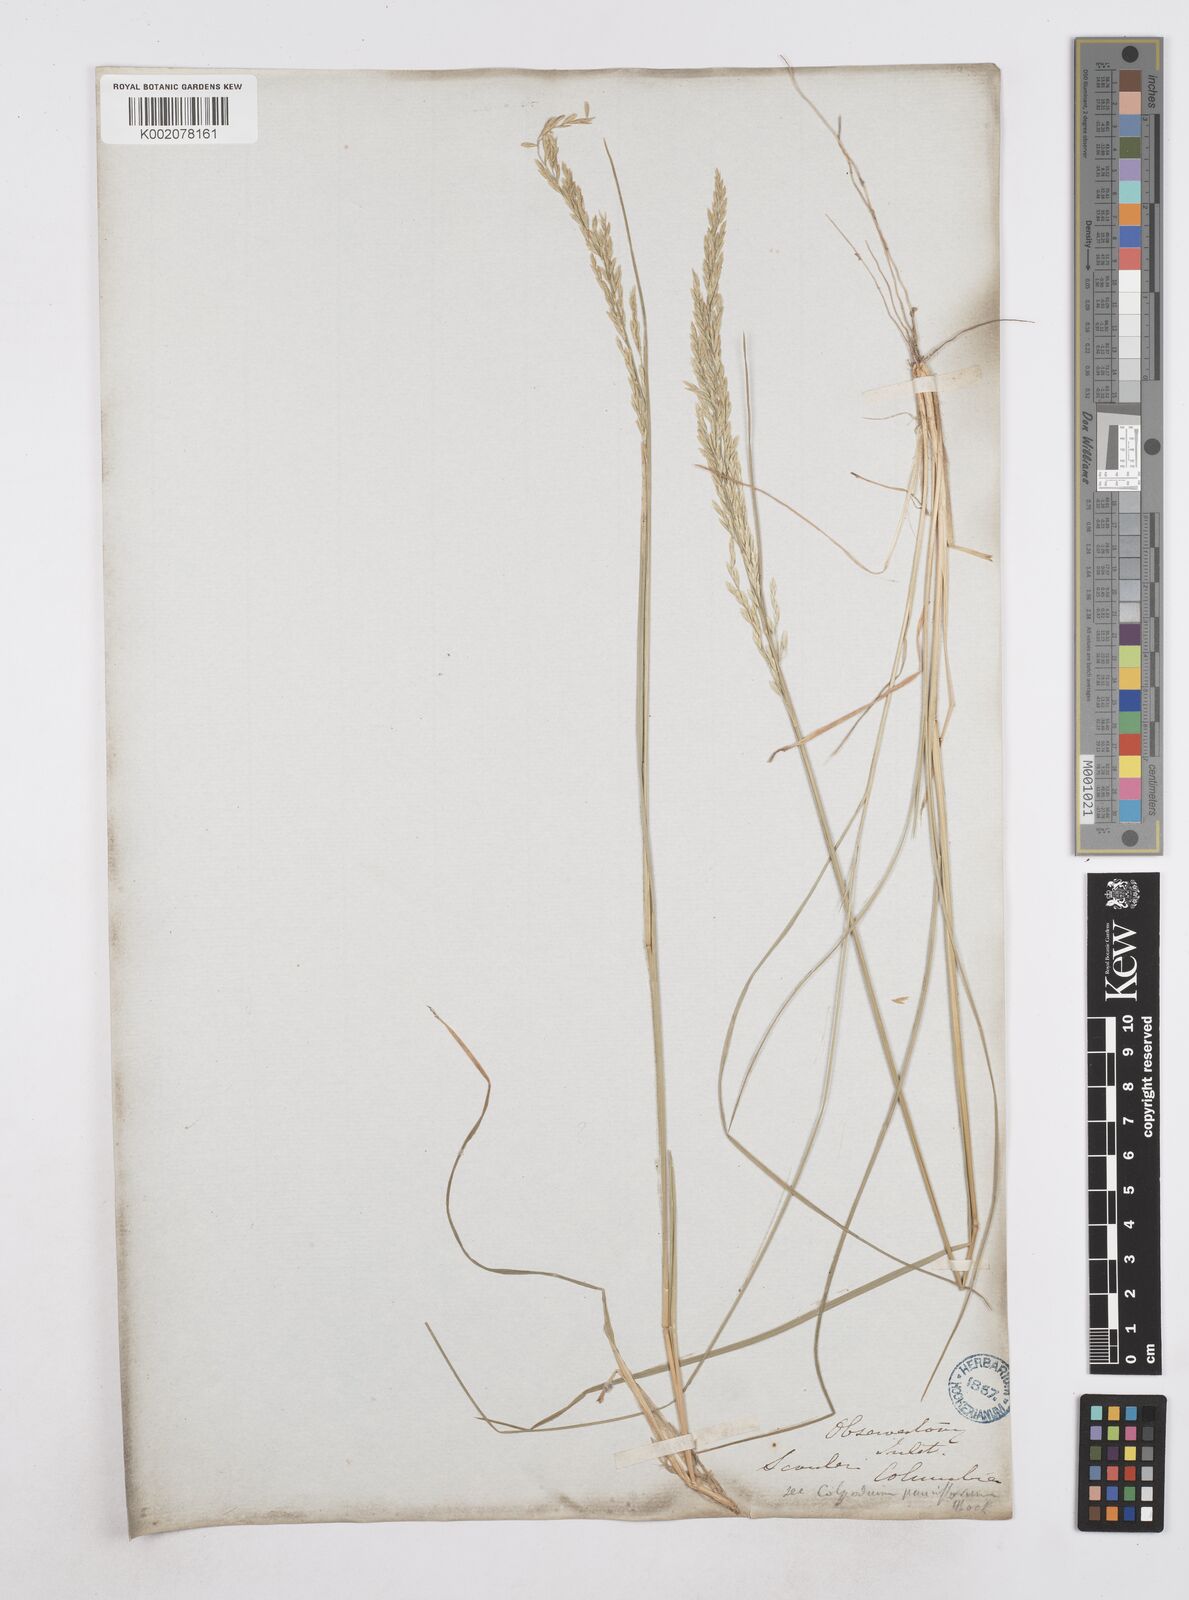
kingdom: Plantae
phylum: Tracheophyta
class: Liliopsida
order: Poales
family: Poaceae
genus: Poa
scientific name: Poa
